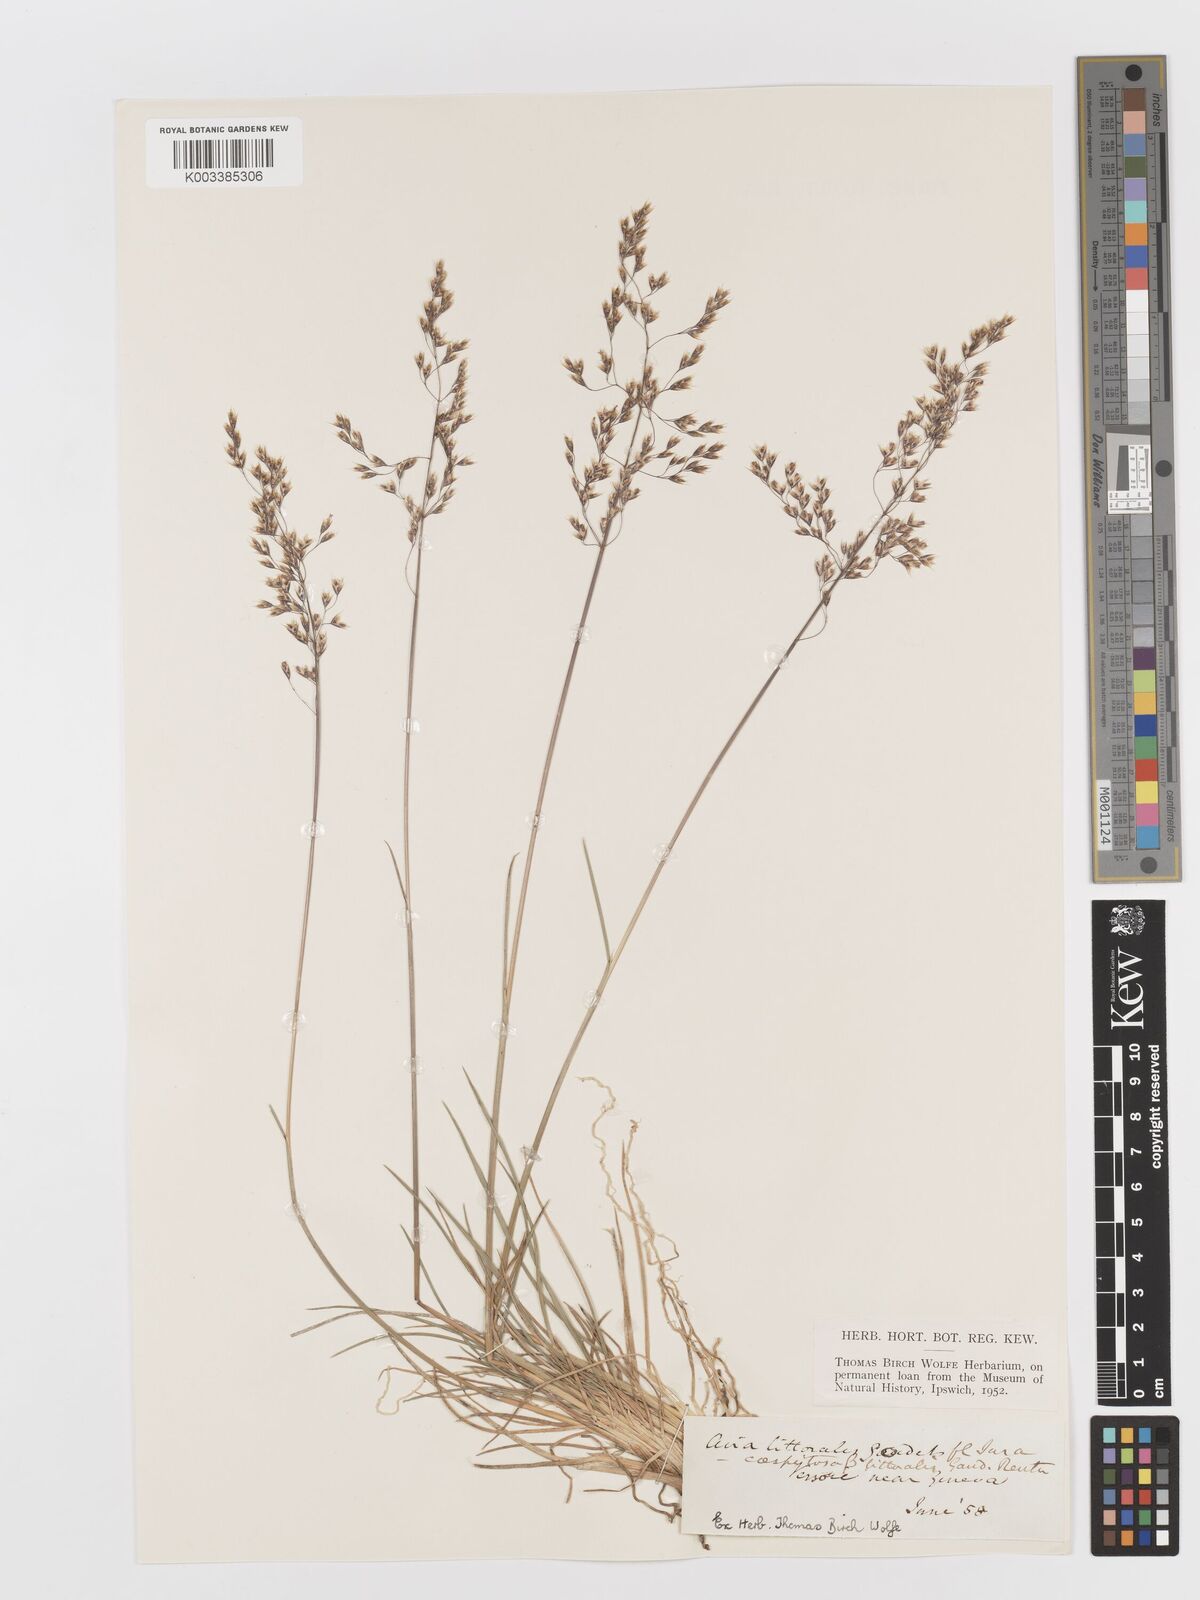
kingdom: Plantae
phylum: Tracheophyta
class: Liliopsida
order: Poales
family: Poaceae
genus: Deschampsia
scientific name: Deschampsia cespitosa
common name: Tufted hair-grass
